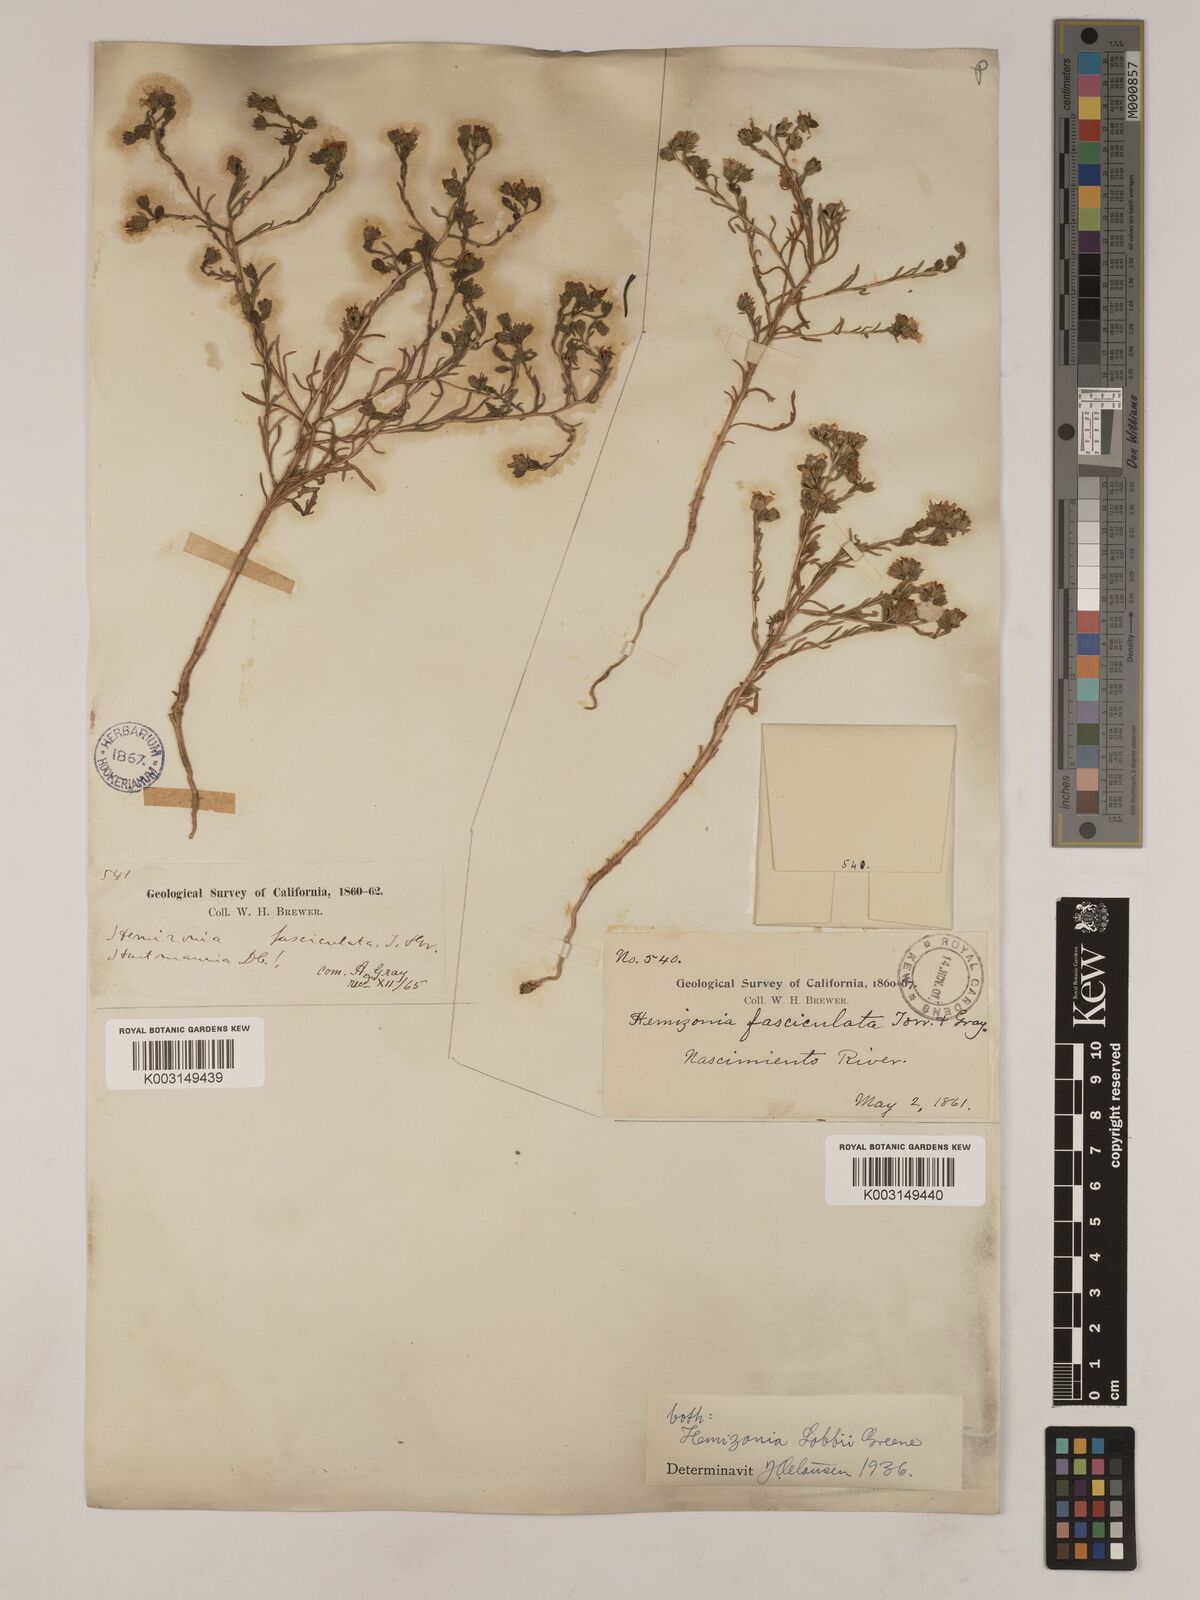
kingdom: Plantae
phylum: Tracheophyta
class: Magnoliopsida
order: Asterales
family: Asteraceae
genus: Deinandra
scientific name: Deinandra lobbii
